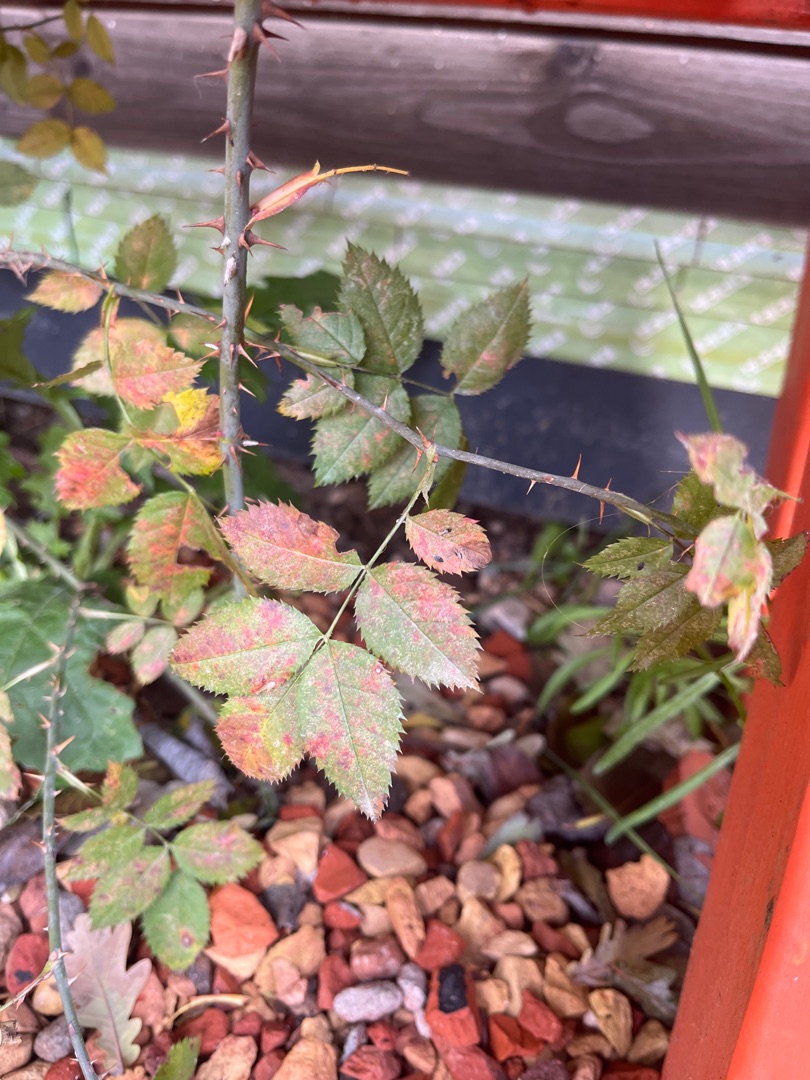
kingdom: Plantae
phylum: Tracheophyta
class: Magnoliopsida
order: Rosales
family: Rosaceae
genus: Rosa
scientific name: Rosa
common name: Roseslægten
